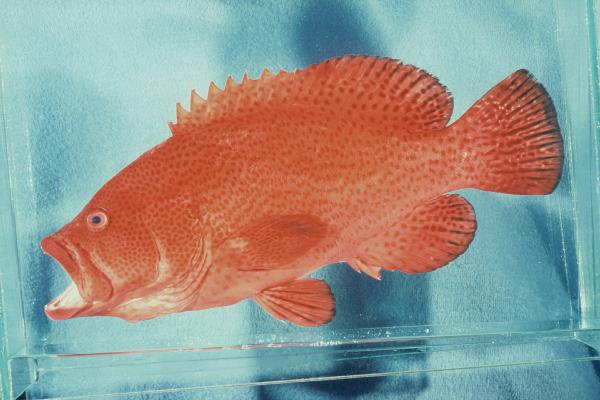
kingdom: Animalia
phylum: Chordata
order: Perciformes
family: Serranidae
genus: Cephalopholis
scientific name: Cephalopholis sonnerati
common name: Tomato hind
